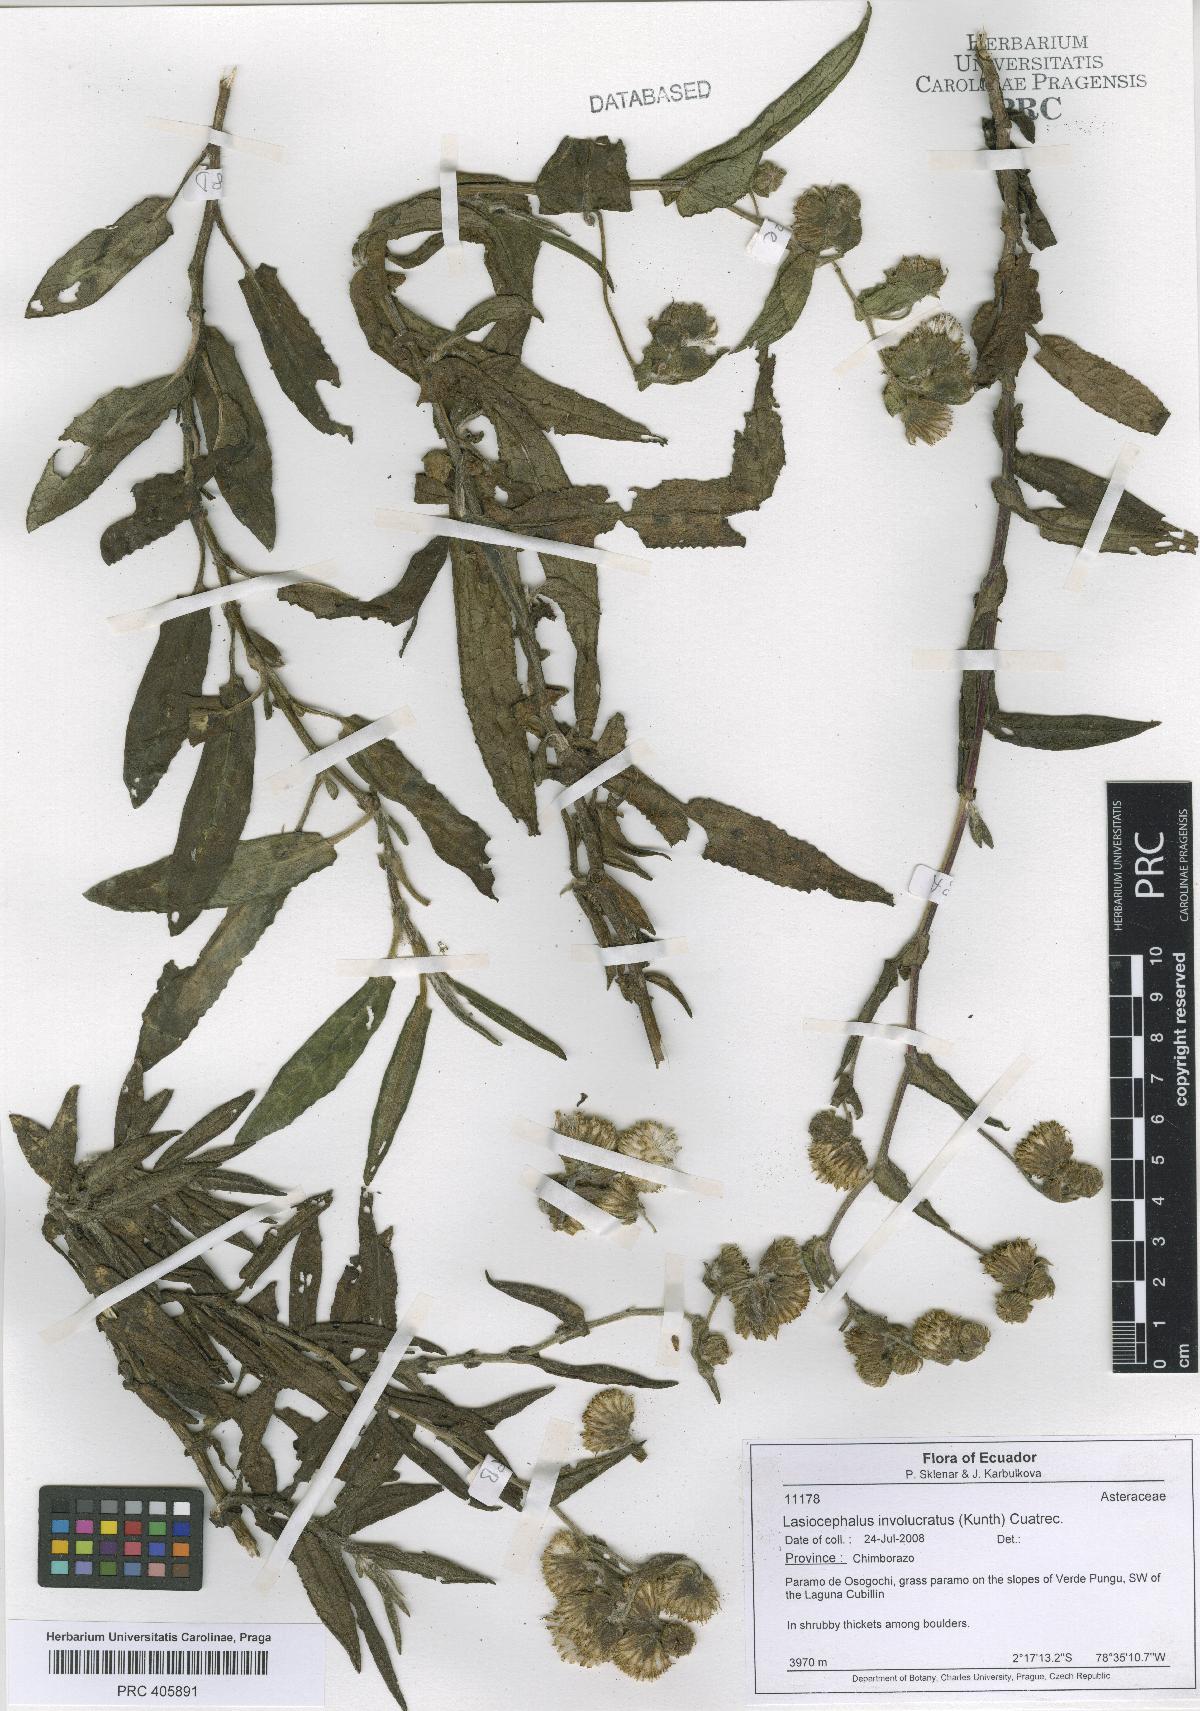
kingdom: Plantae
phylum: Tracheophyta
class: Magnoliopsida
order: Asterales
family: Asteraceae
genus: Aetheolaena
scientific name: Aetheolaena involucrata
